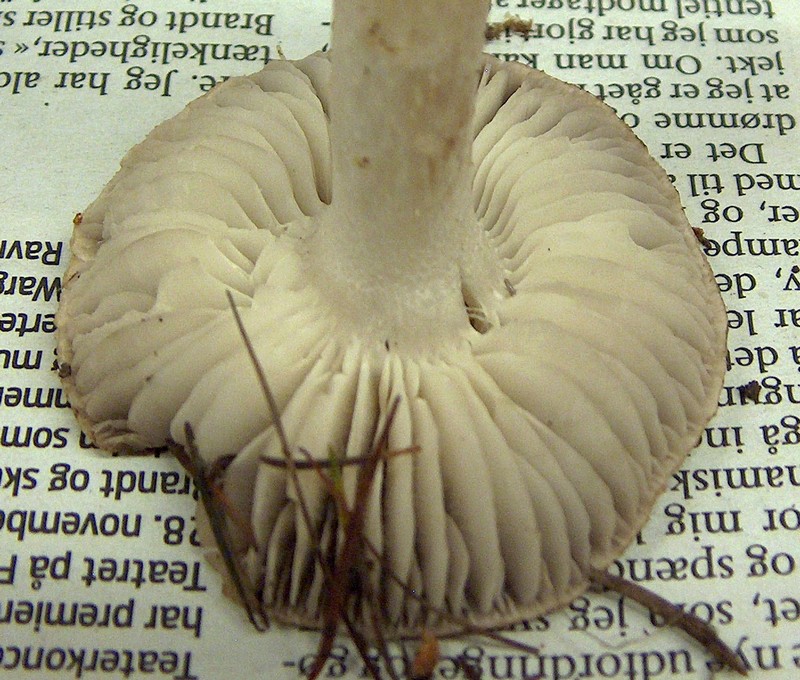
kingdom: Fungi
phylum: Basidiomycota
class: Agaricomycetes
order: Agaricales
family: Tricholomataceae
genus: Tricholoma
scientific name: Tricholoma terreum
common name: jordfarvet ridderhat
